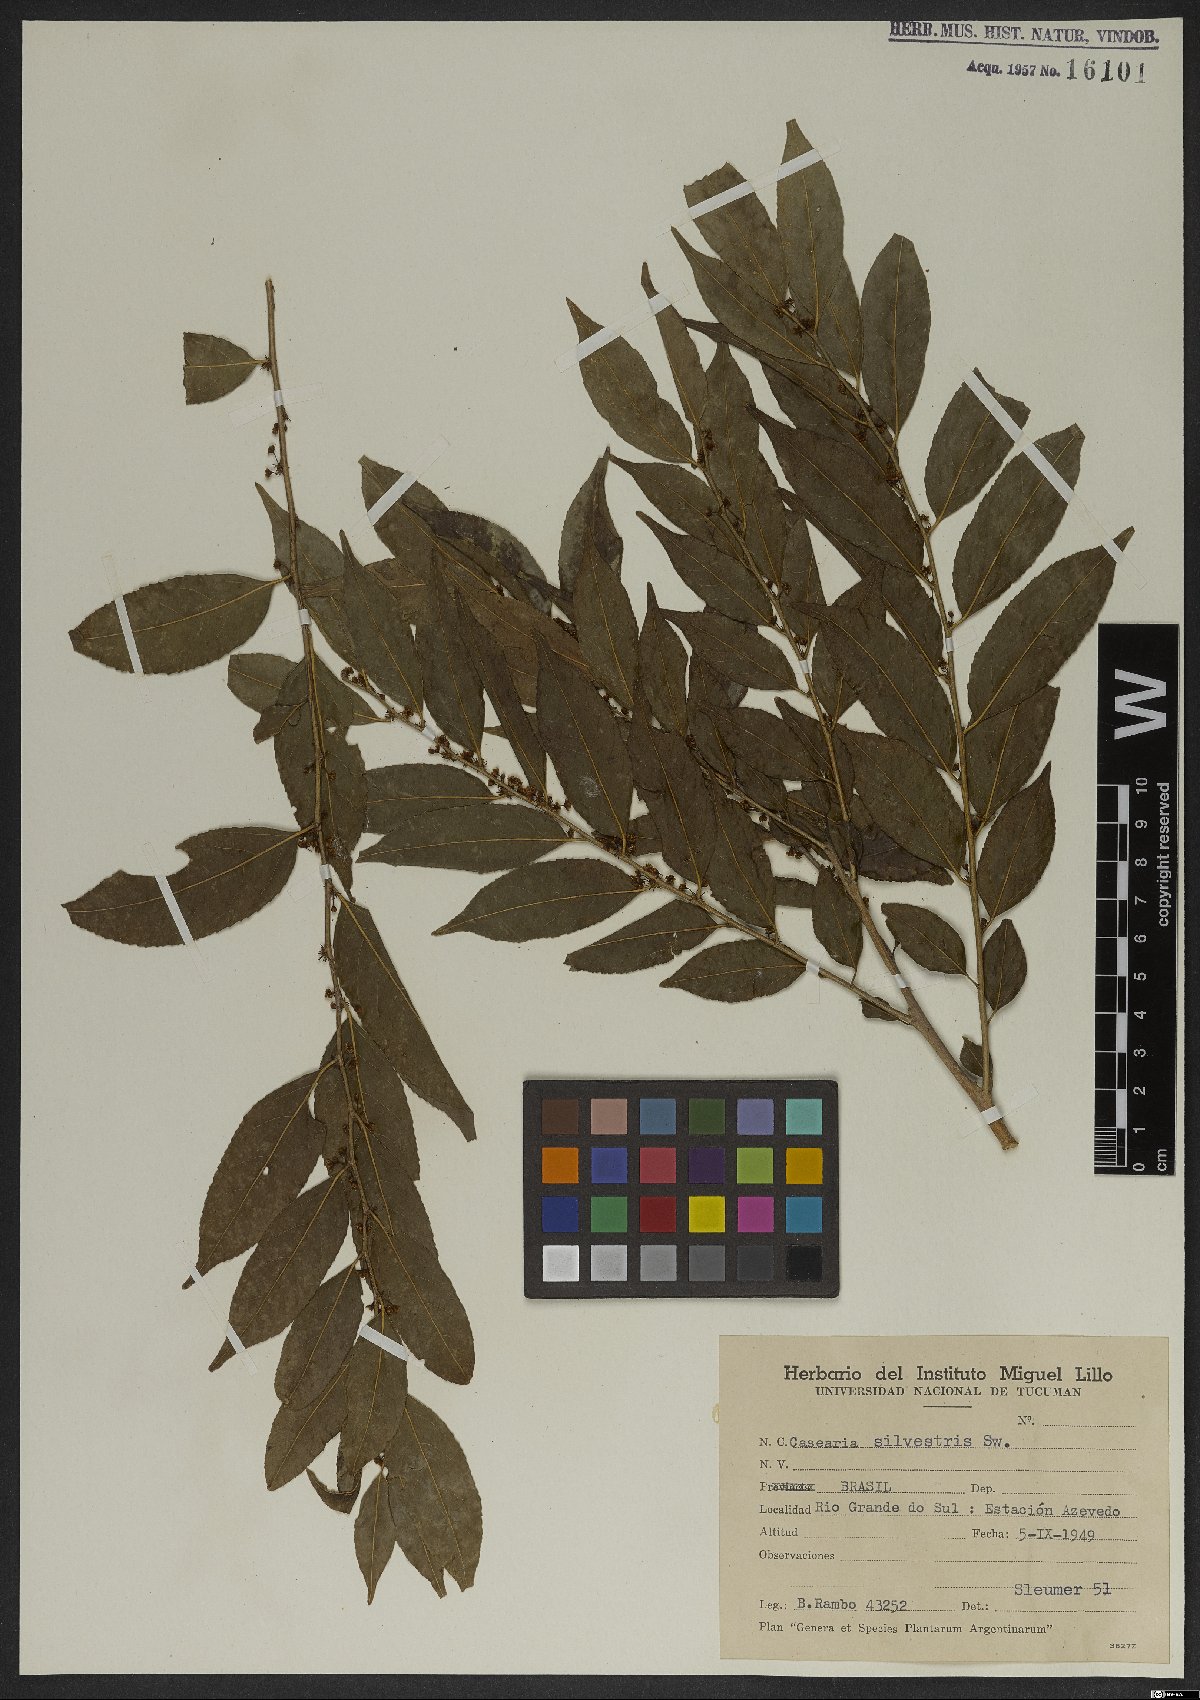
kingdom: Plantae
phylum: Tracheophyta
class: Magnoliopsida
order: Malpighiales
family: Salicaceae
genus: Casearia
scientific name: Casearia sylvestris
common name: Wild sage
